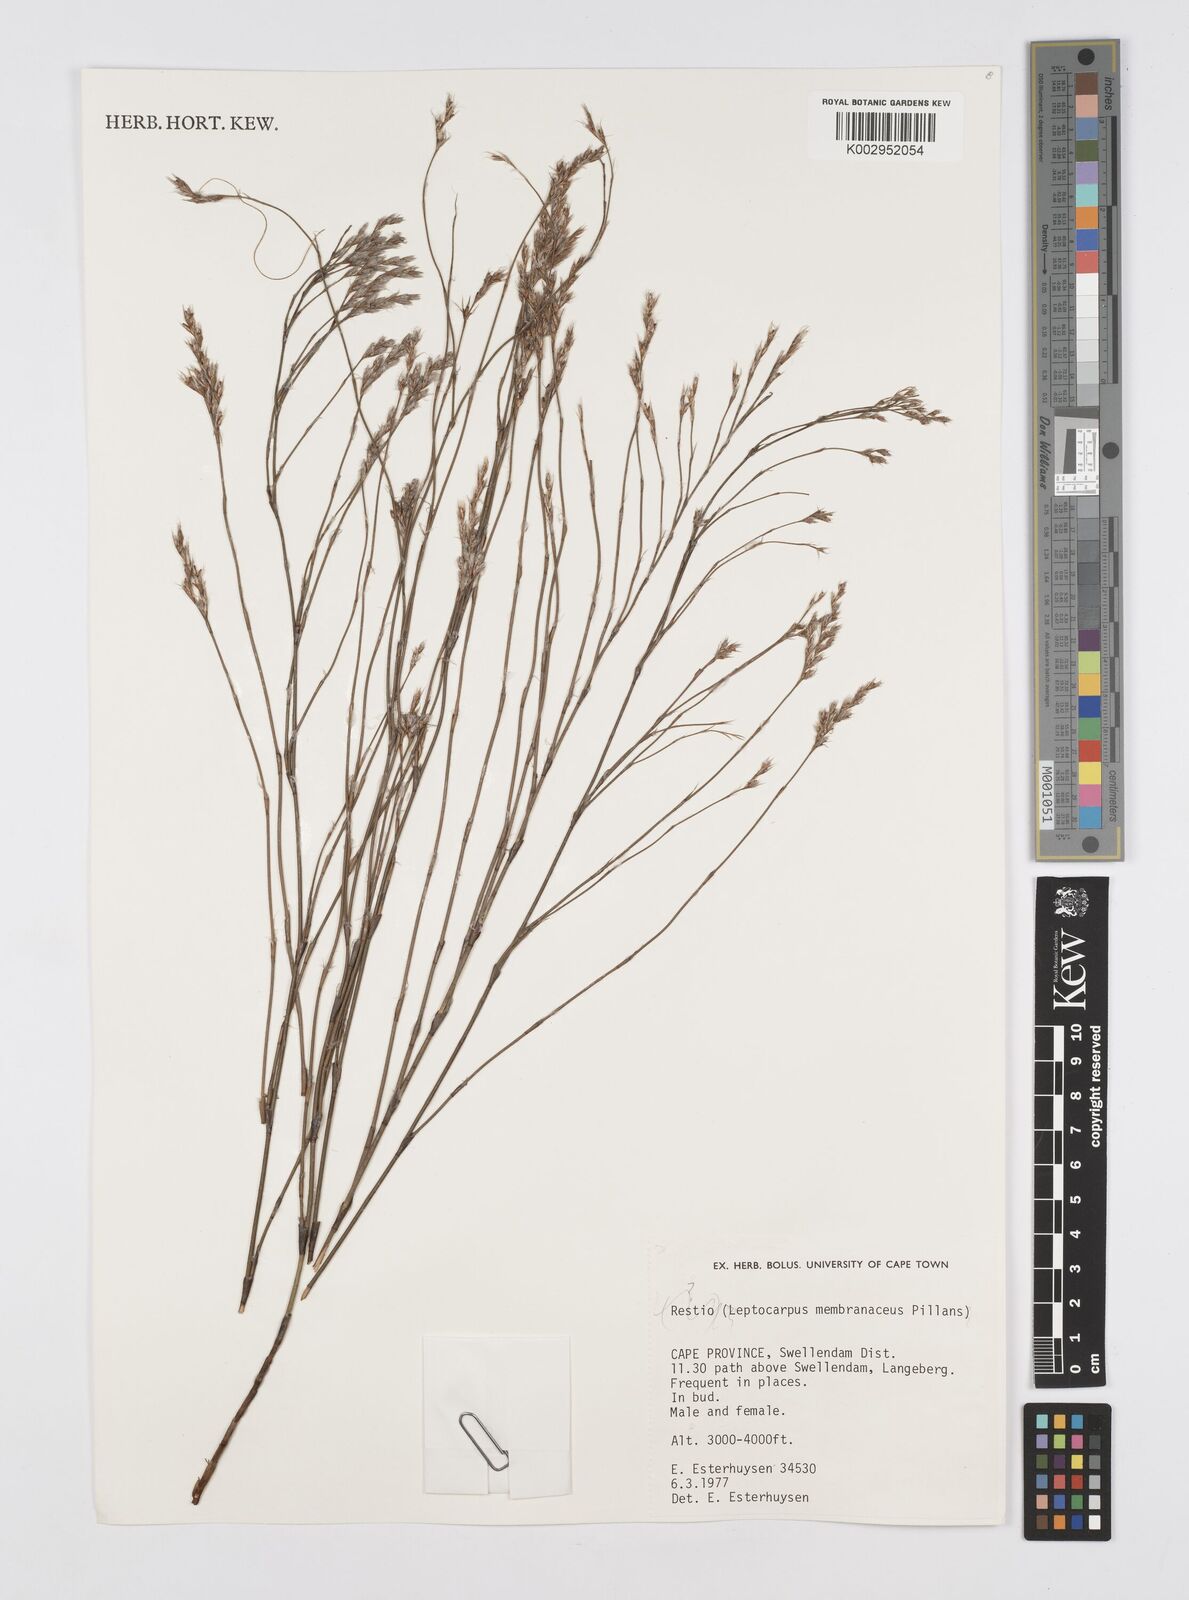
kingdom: Plantae
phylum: Tracheophyta
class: Liliopsida
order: Poales
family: Restionaceae
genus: Elegia
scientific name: Elegia intermedia
